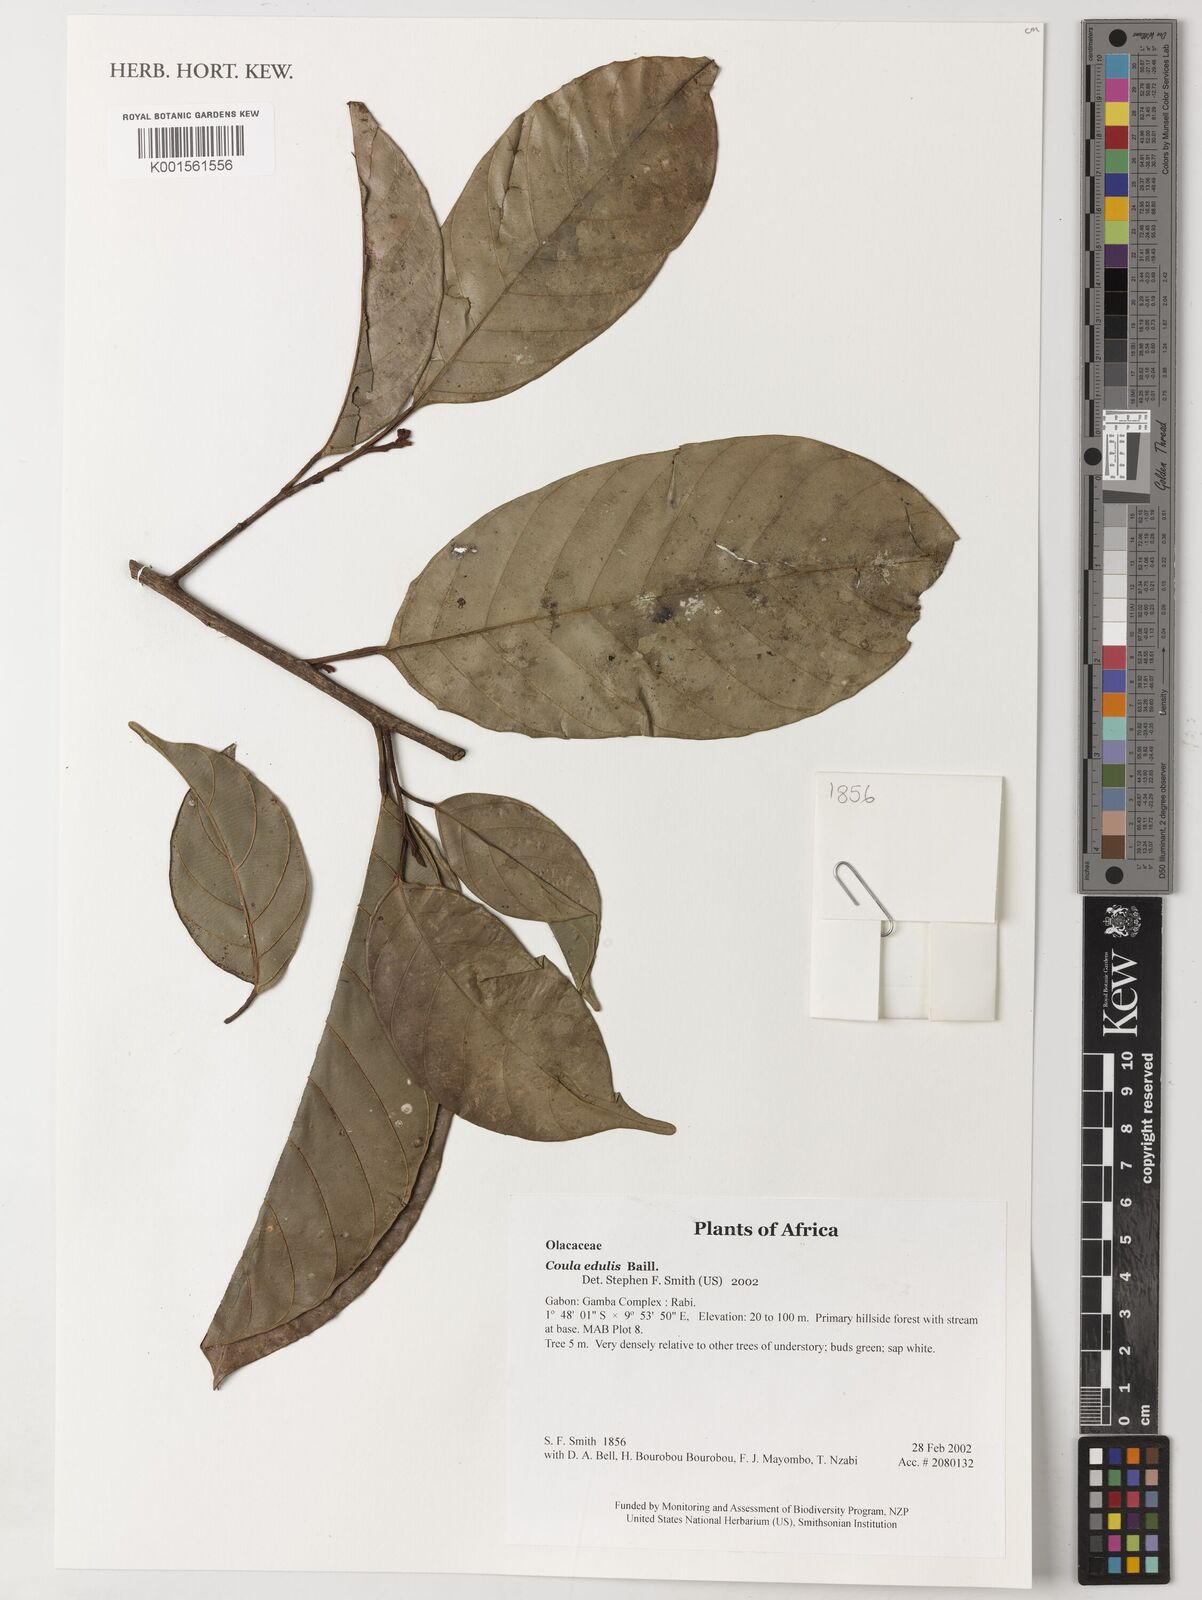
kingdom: Plantae
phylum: Tracheophyta
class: Magnoliopsida
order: Santalales
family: Coulaceae
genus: Coula
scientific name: Coula edulis
